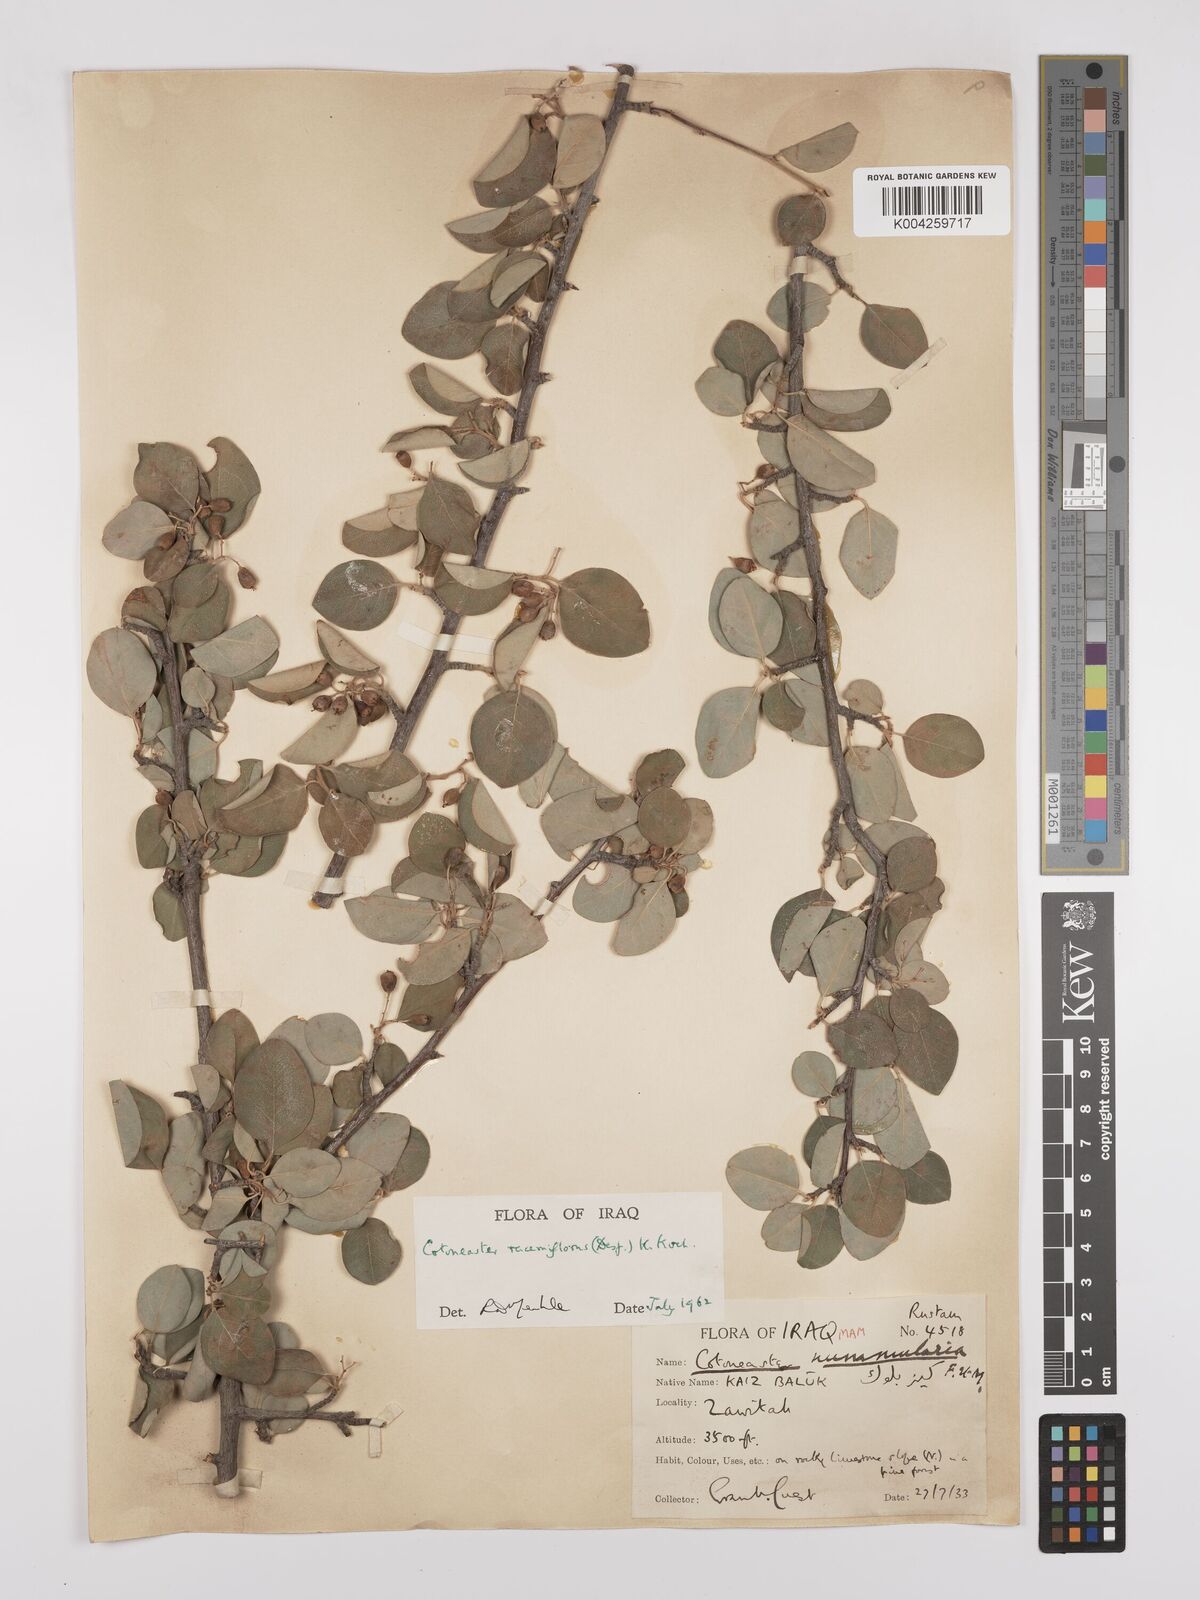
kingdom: Plantae
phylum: Tracheophyta
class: Magnoliopsida
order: Rosales
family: Rosaceae
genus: Cotoneaster
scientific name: Cotoneaster racemiflorus
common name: Cluster-flower cotoneaster
